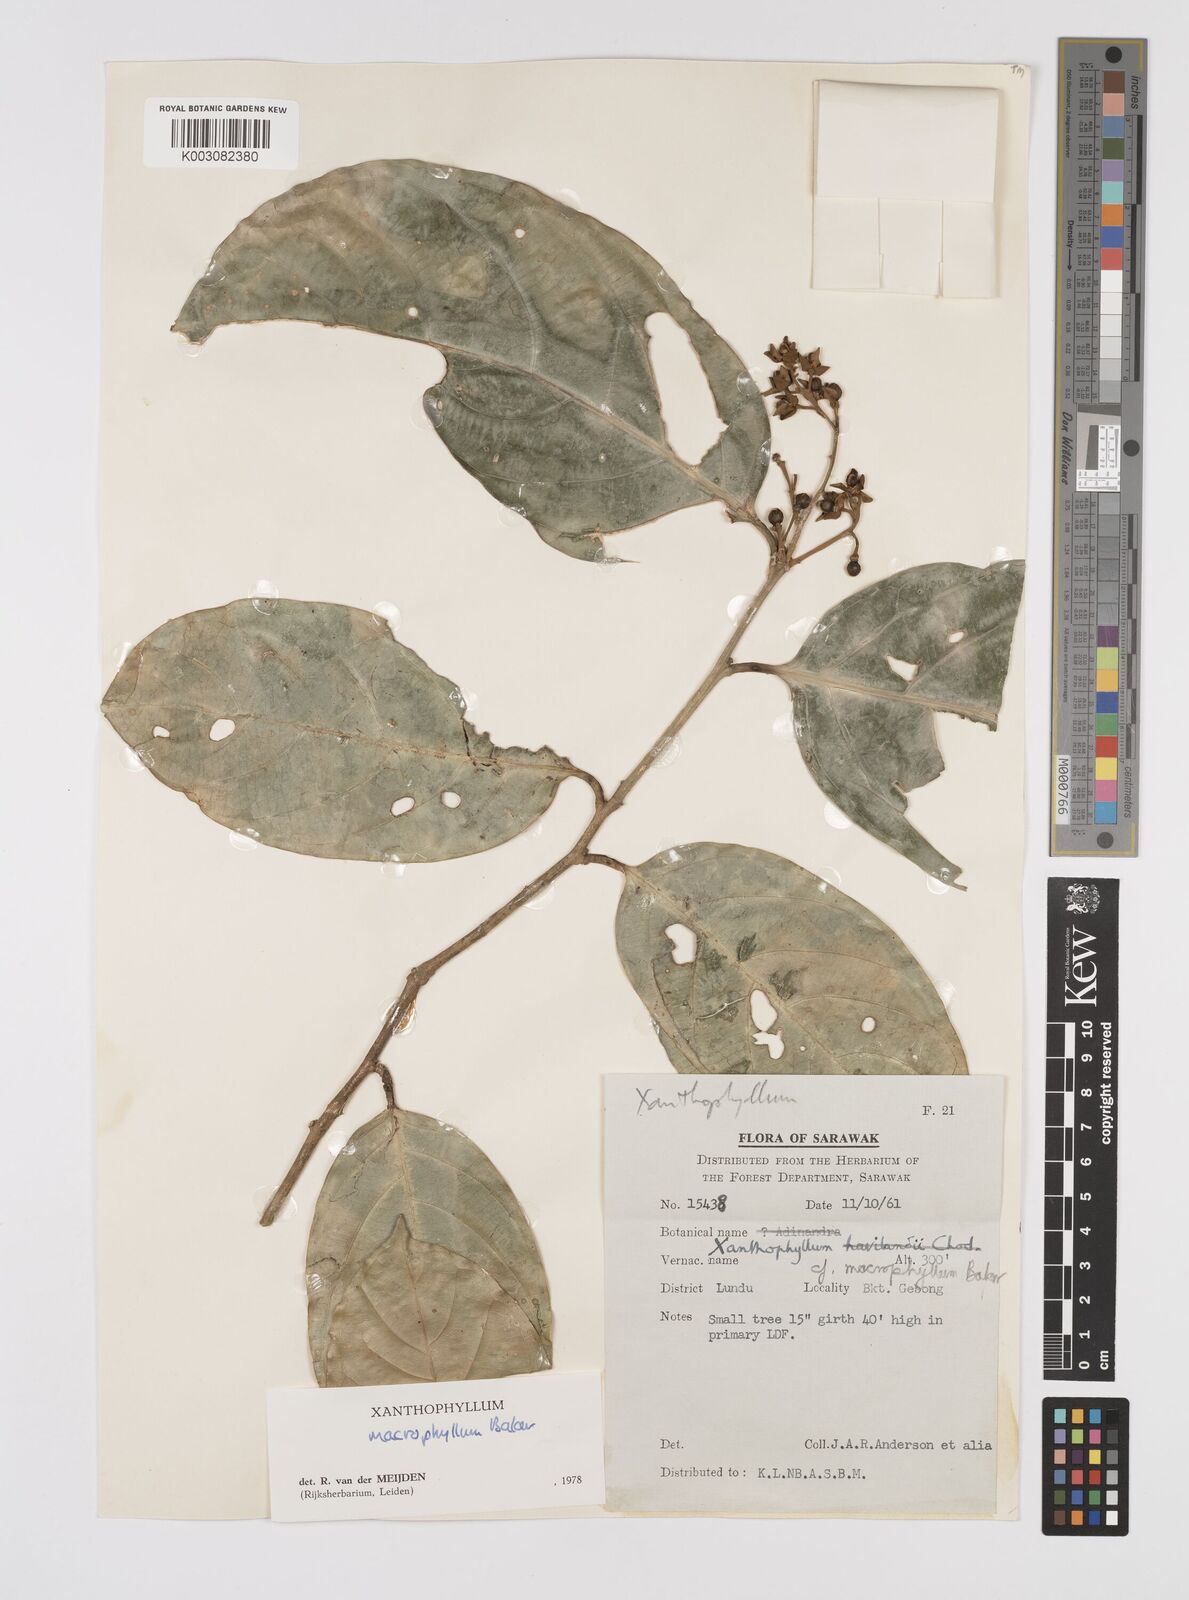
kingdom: Plantae
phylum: Tracheophyta
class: Magnoliopsida
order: Fabales
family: Polygalaceae
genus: Xanthophyllum
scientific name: Xanthophyllum macrophyllum
